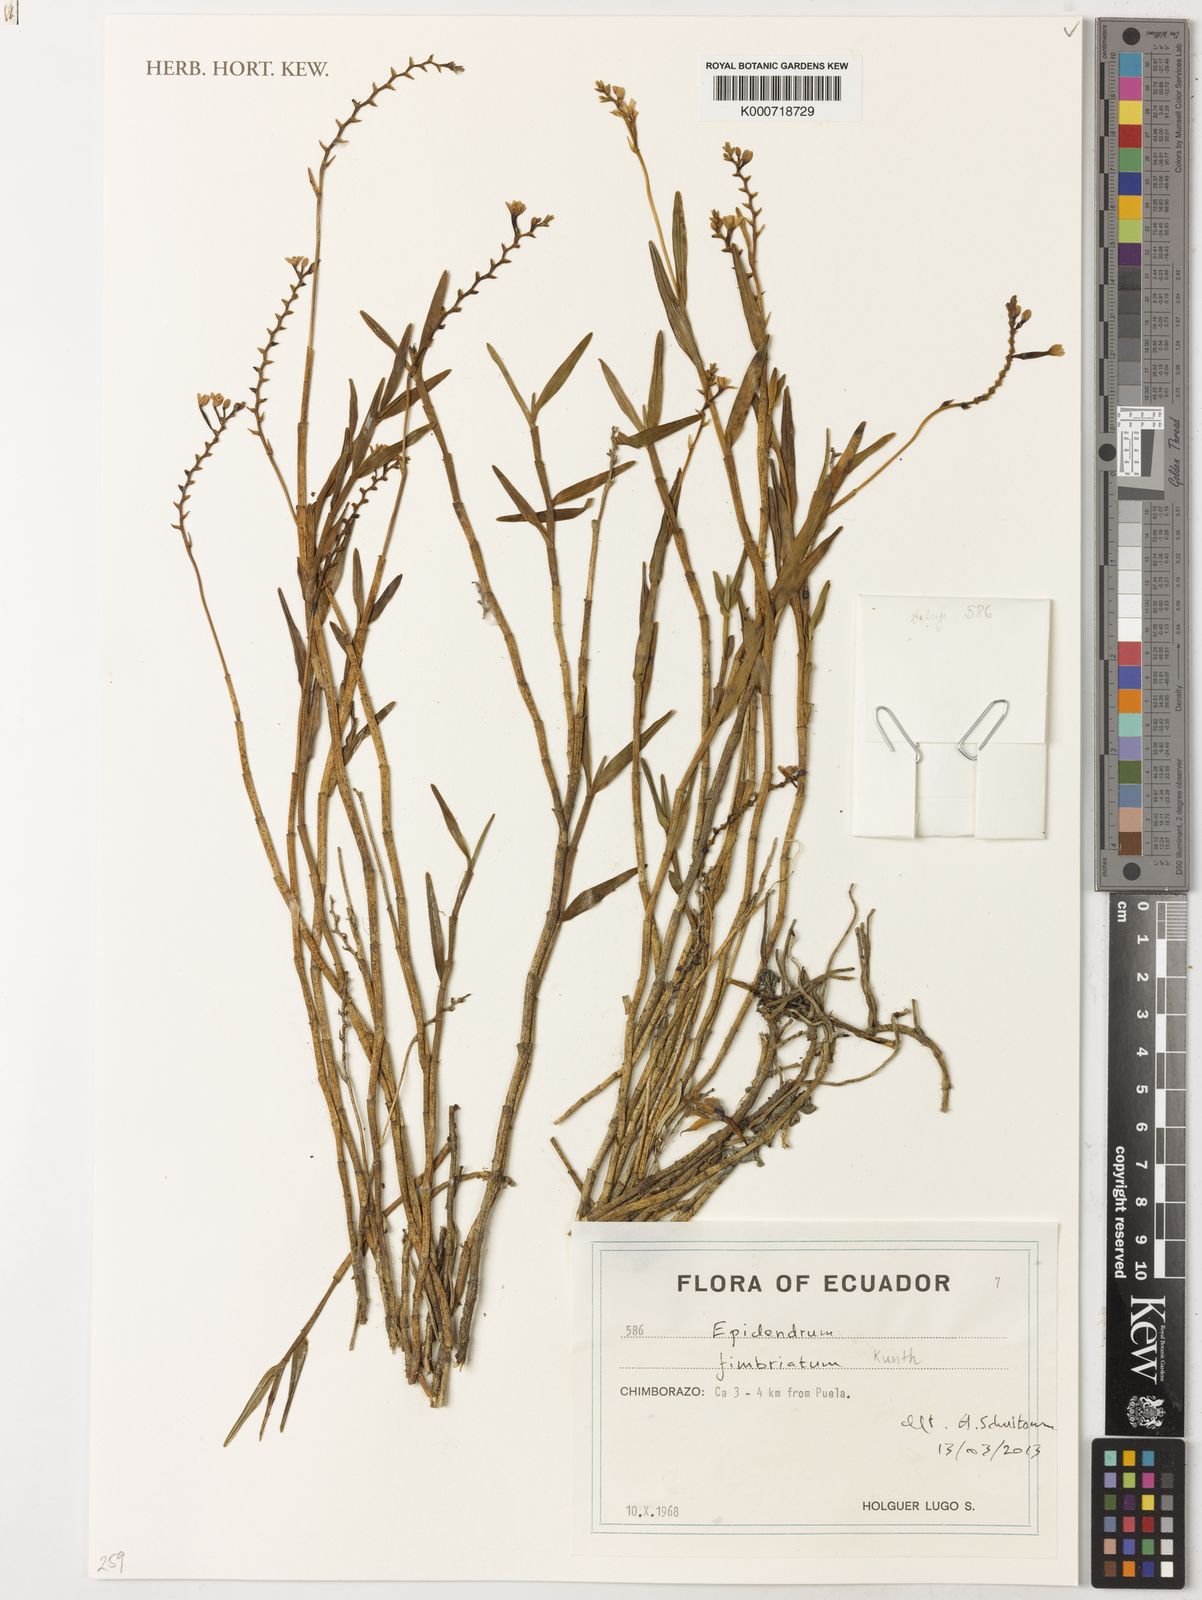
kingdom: Plantae
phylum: Tracheophyta
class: Liliopsida
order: Asparagales
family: Orchidaceae
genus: Epidendrum
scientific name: Epidendrum fimbriatum
